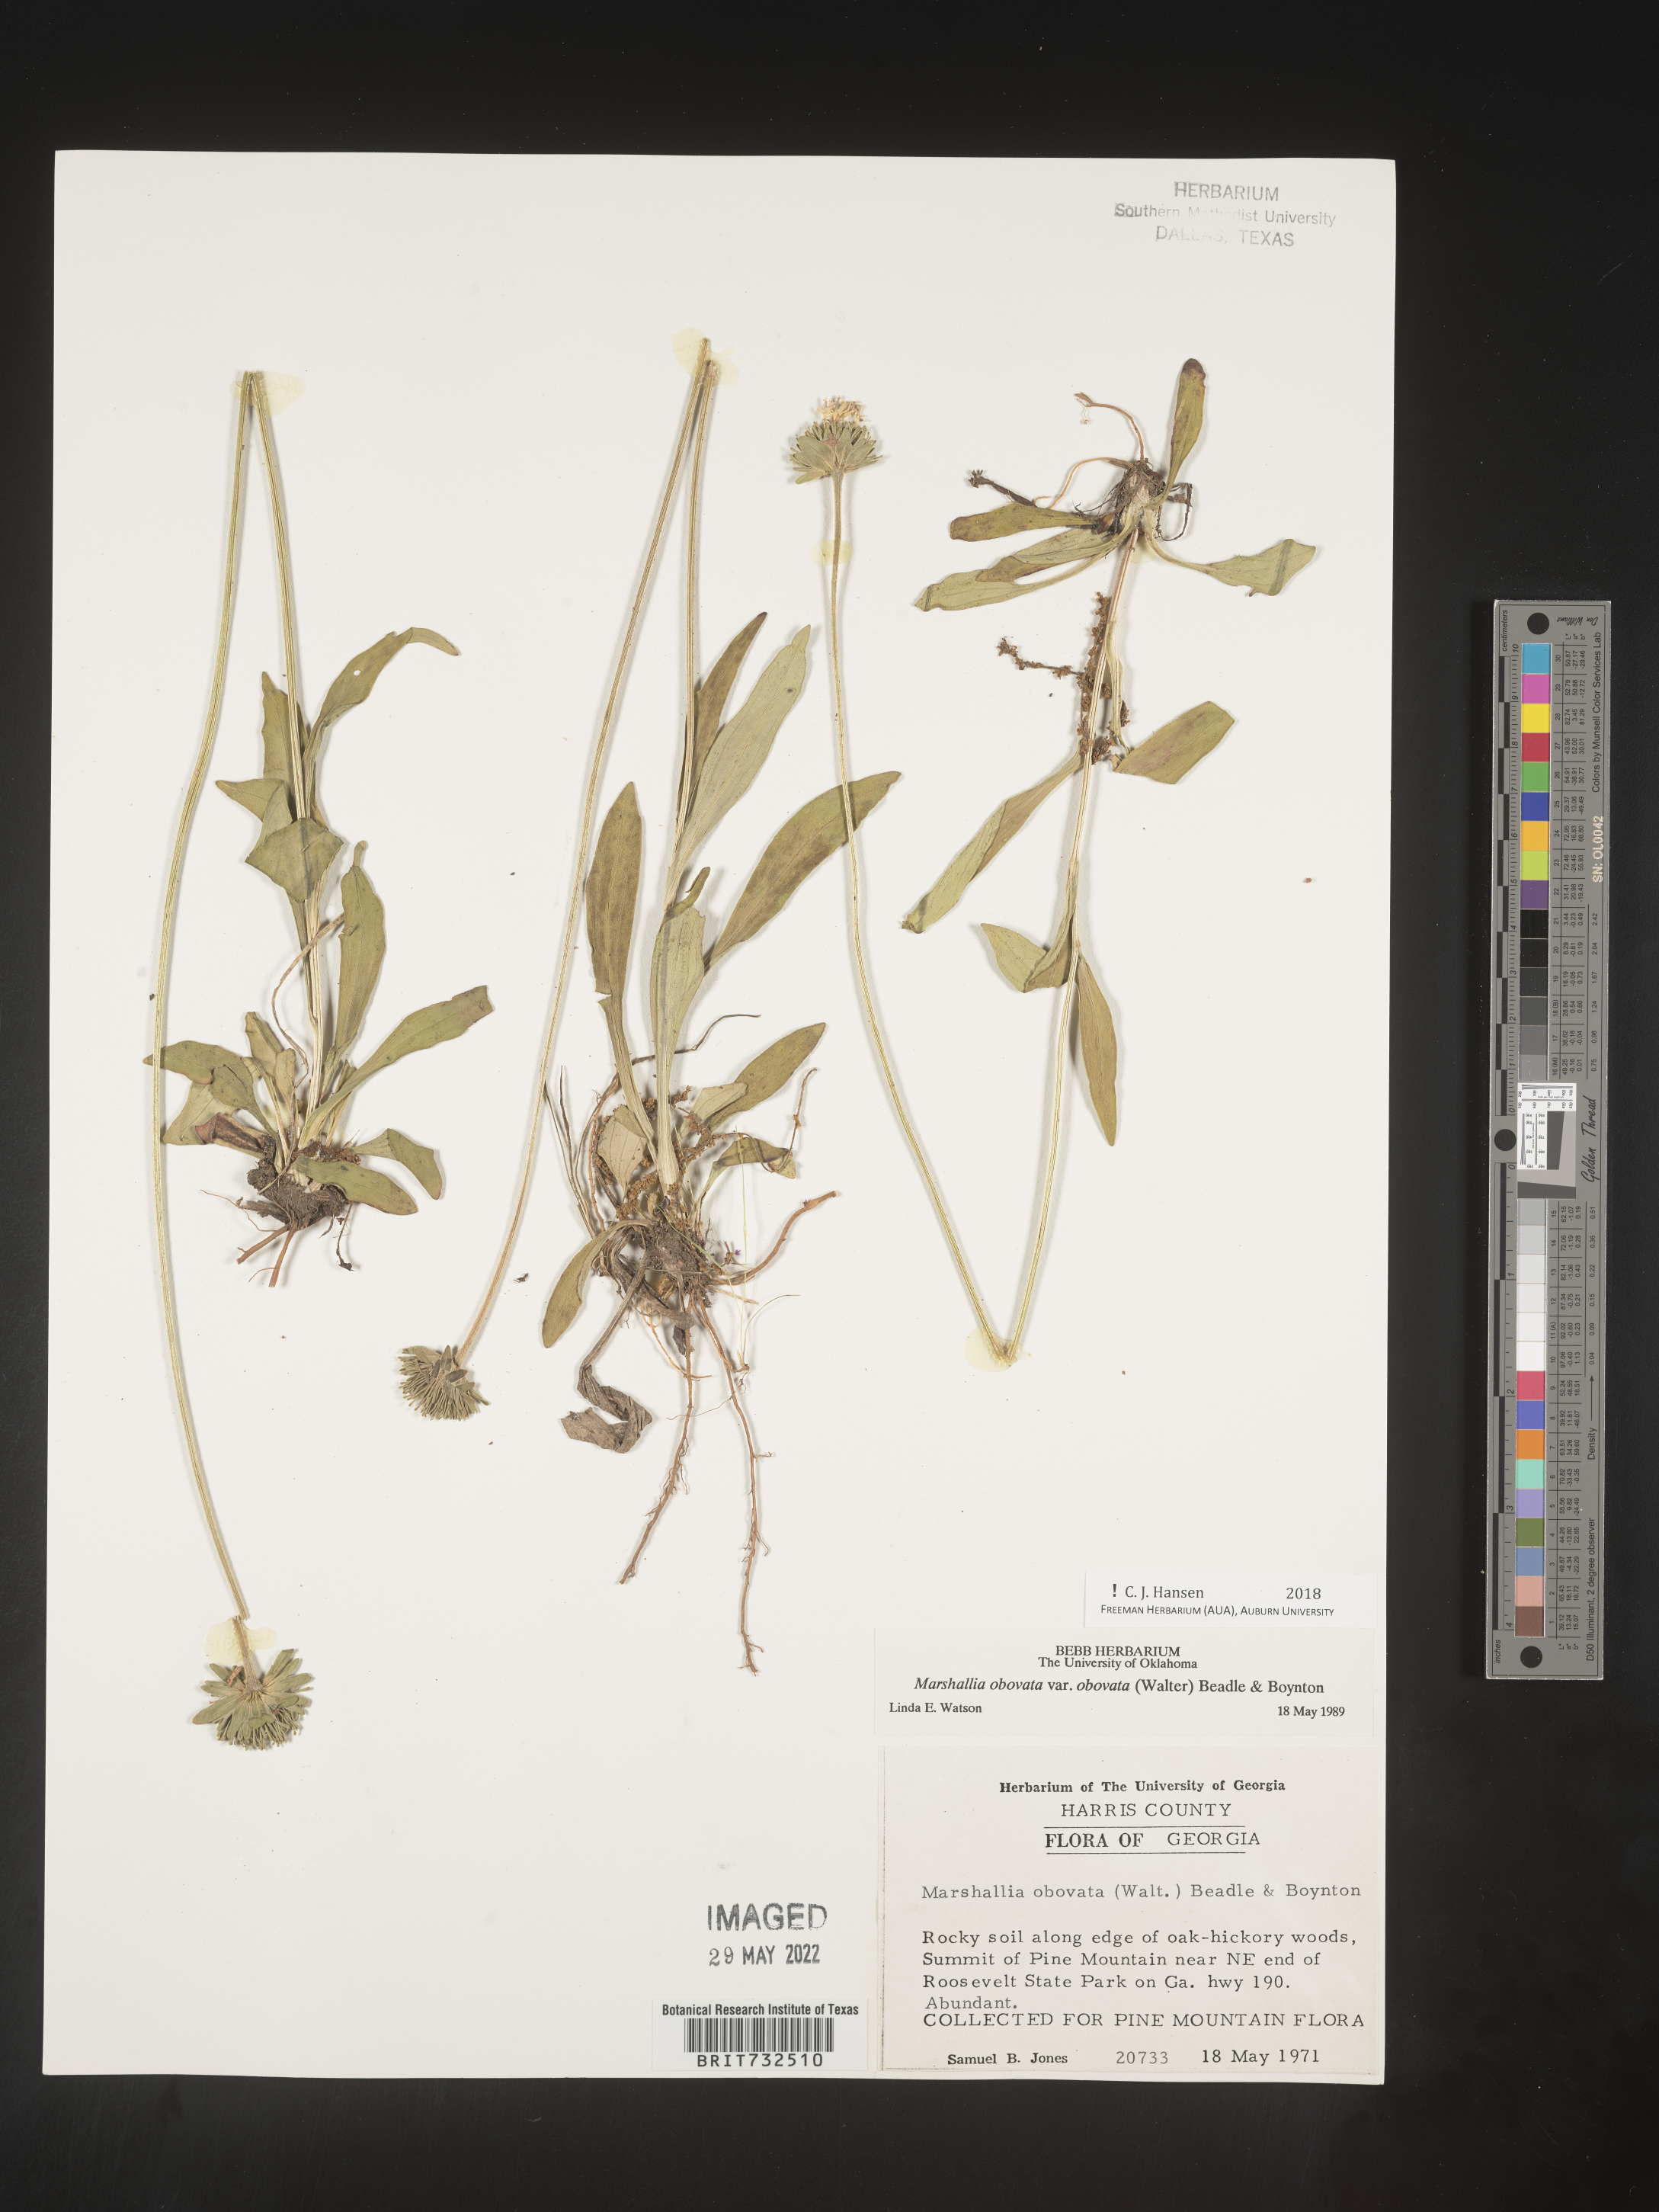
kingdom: Plantae
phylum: Tracheophyta
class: Magnoliopsida
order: Asterales
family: Asteraceae
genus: Marshallia
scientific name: Marshallia obovata
